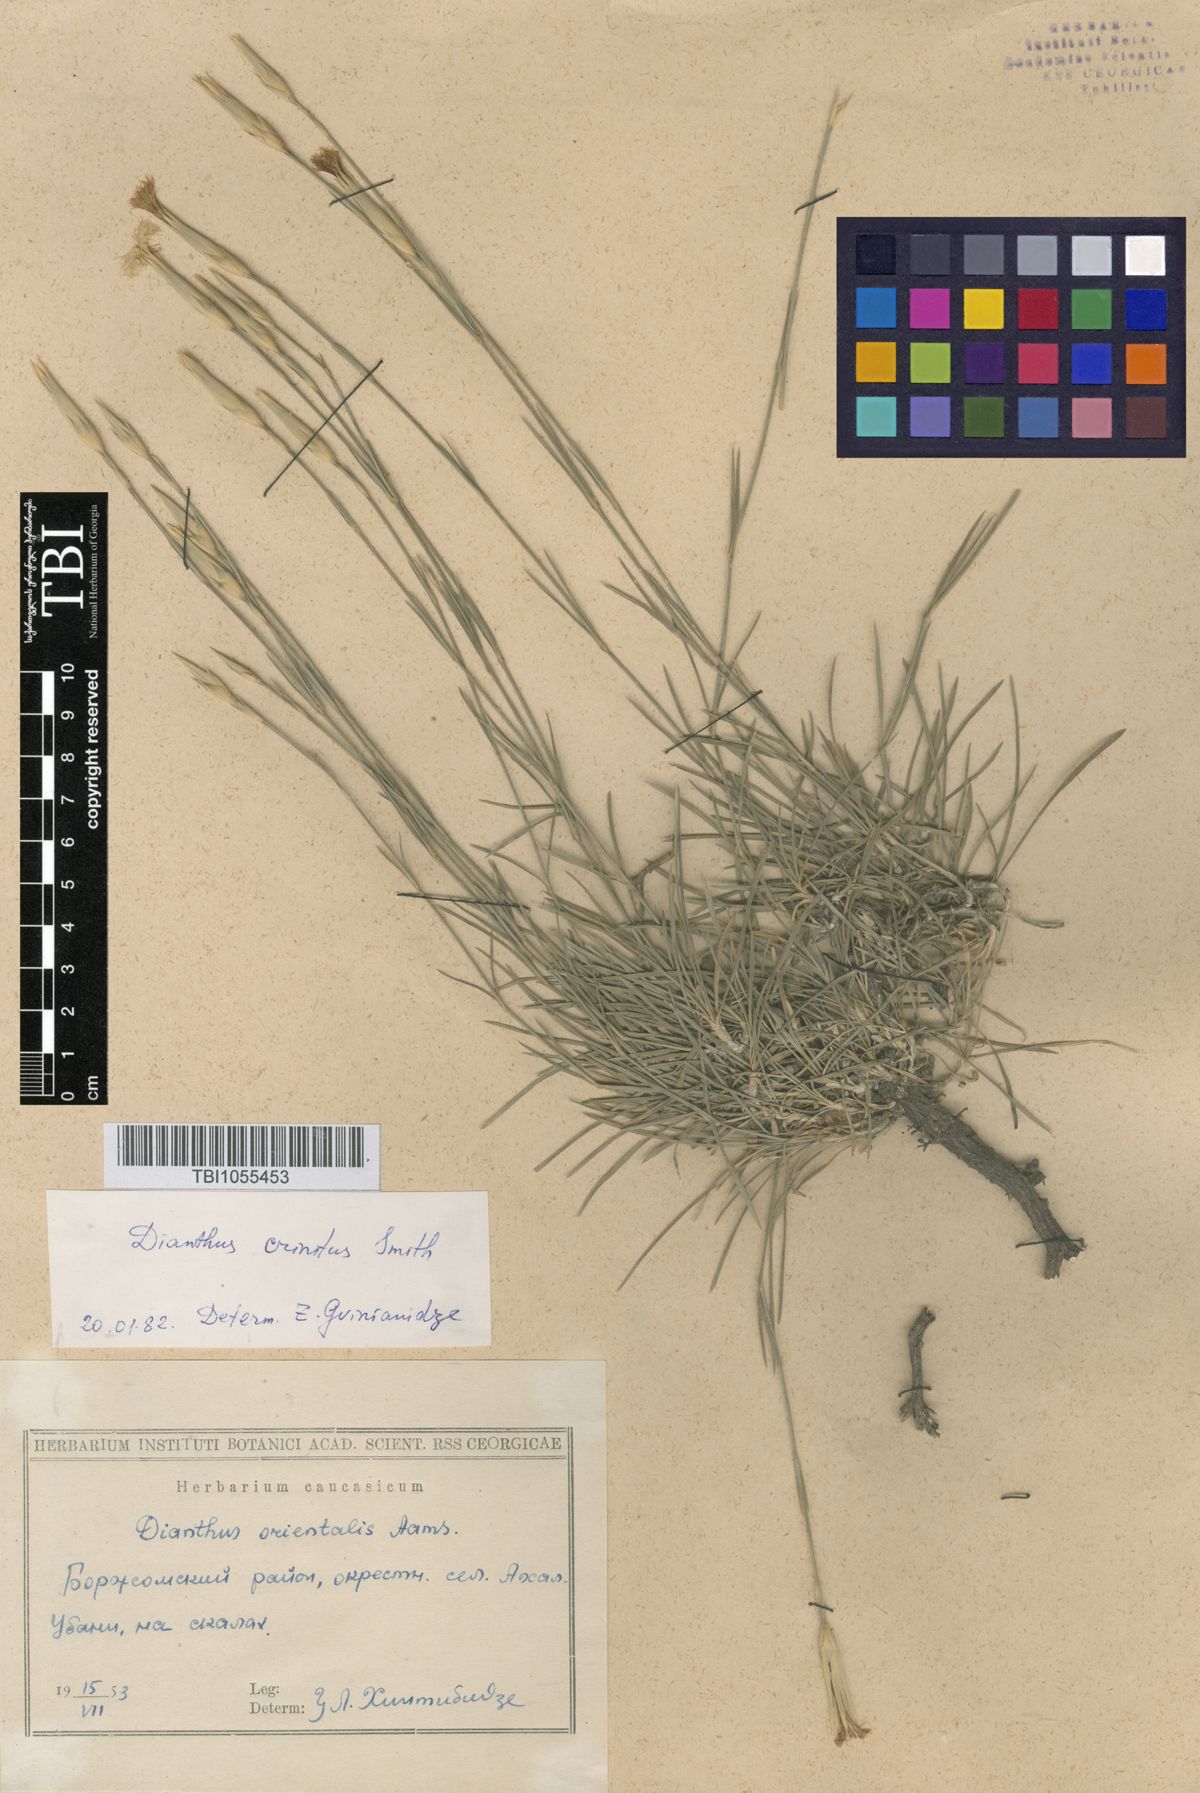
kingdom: Plantae
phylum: Tracheophyta
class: Magnoliopsida
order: Caryophyllales
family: Caryophyllaceae
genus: Dianthus
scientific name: Dianthus crinitus
